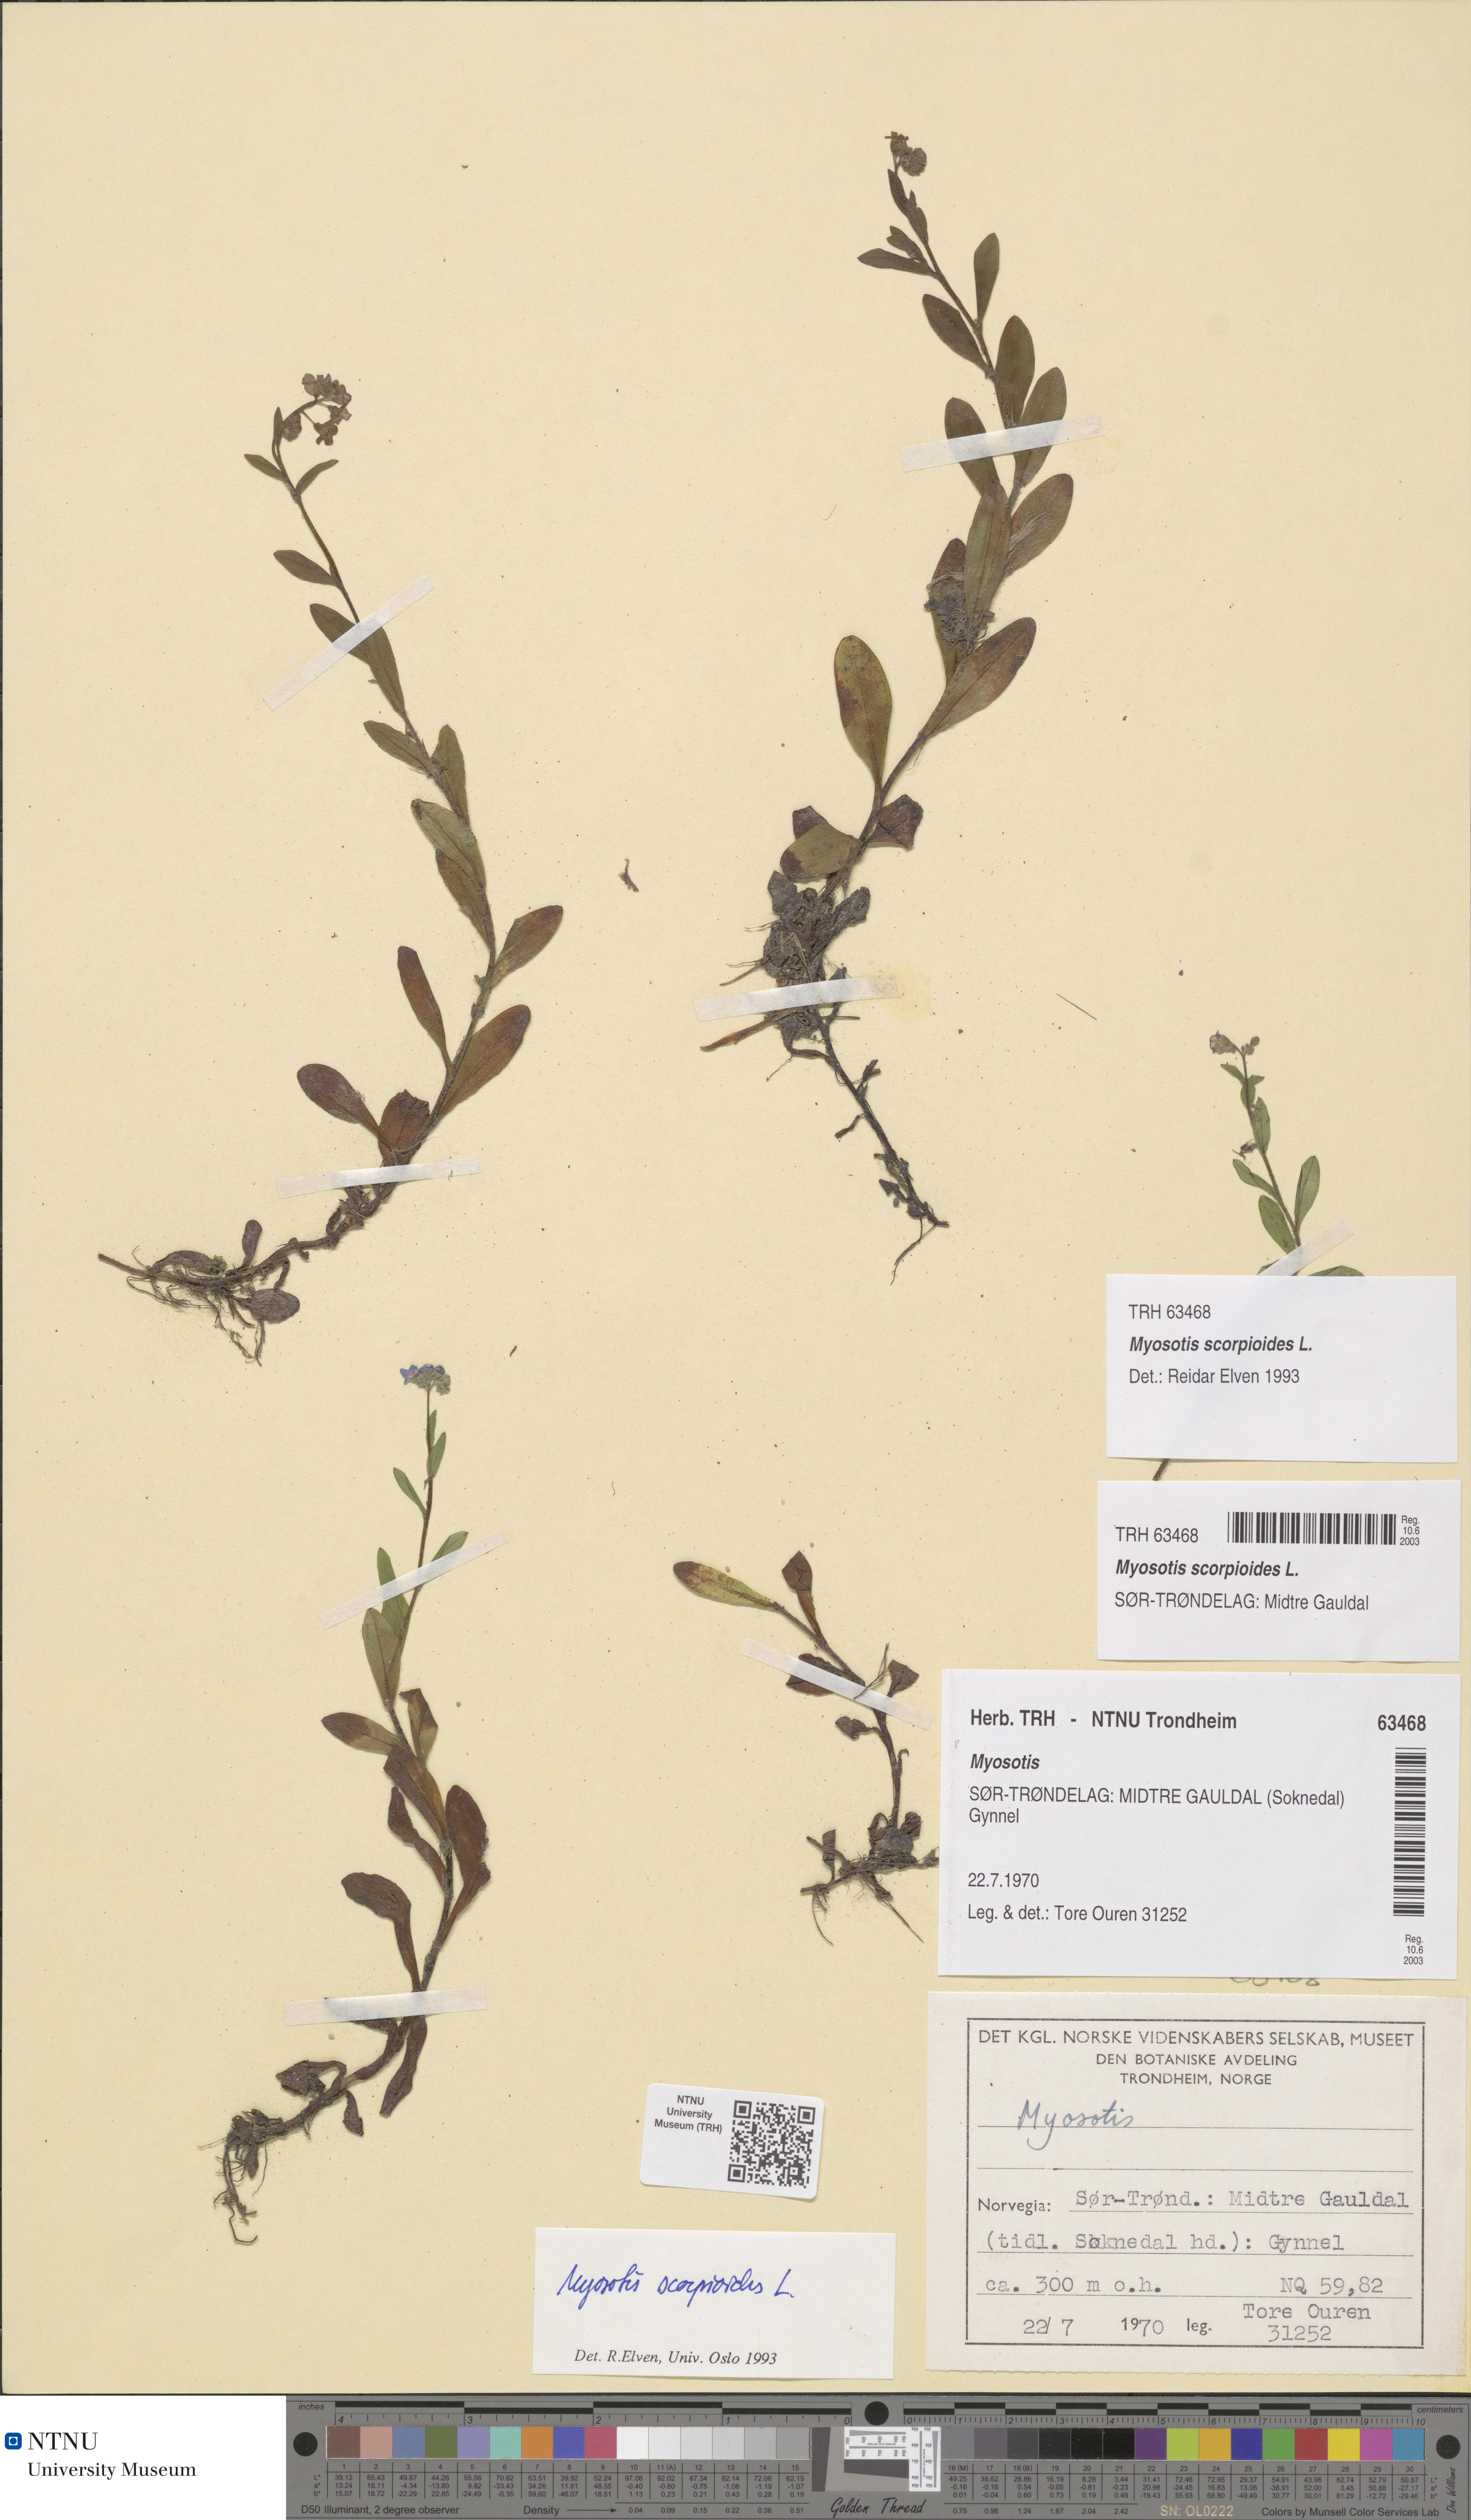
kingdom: Plantae
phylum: Tracheophyta
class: Magnoliopsida
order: Boraginales
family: Boraginaceae
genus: Myosotis
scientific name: Myosotis scorpioides
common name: Water forget-me-not
